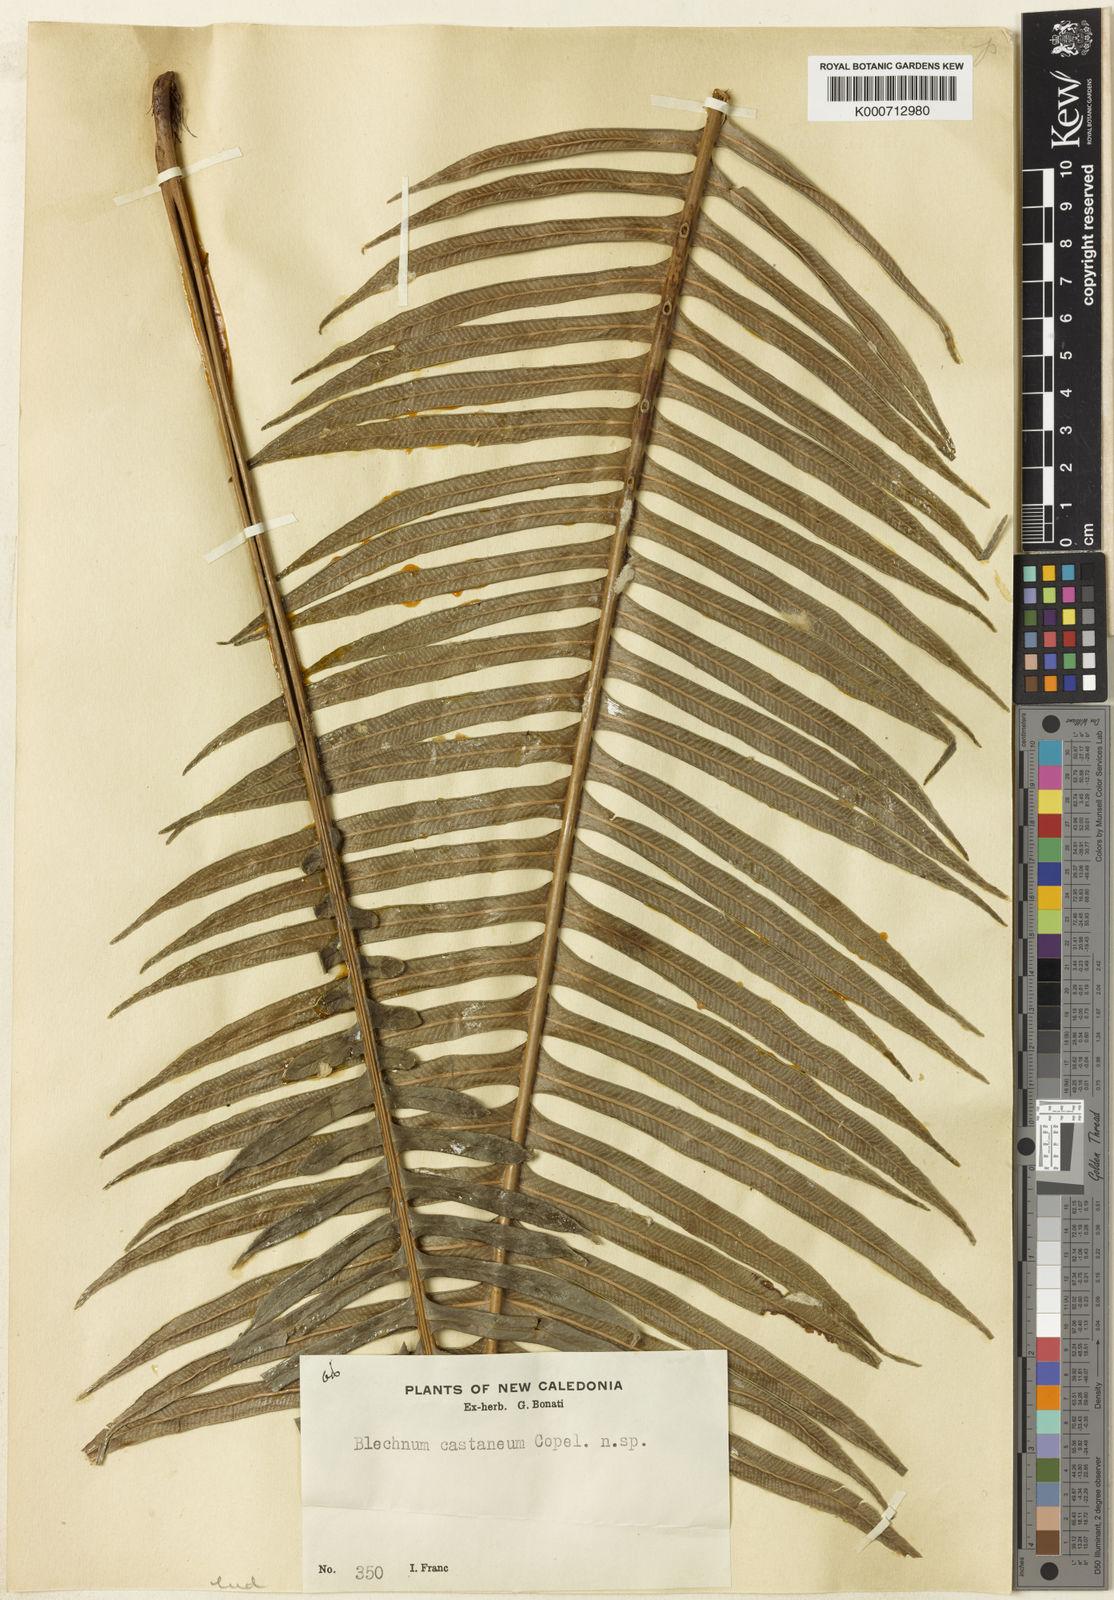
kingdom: Plantae
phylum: Tracheophyta
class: Polypodiopsida
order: Polypodiales
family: Blechnaceae
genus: Parablechnum
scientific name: Parablechnum chauliodontum
